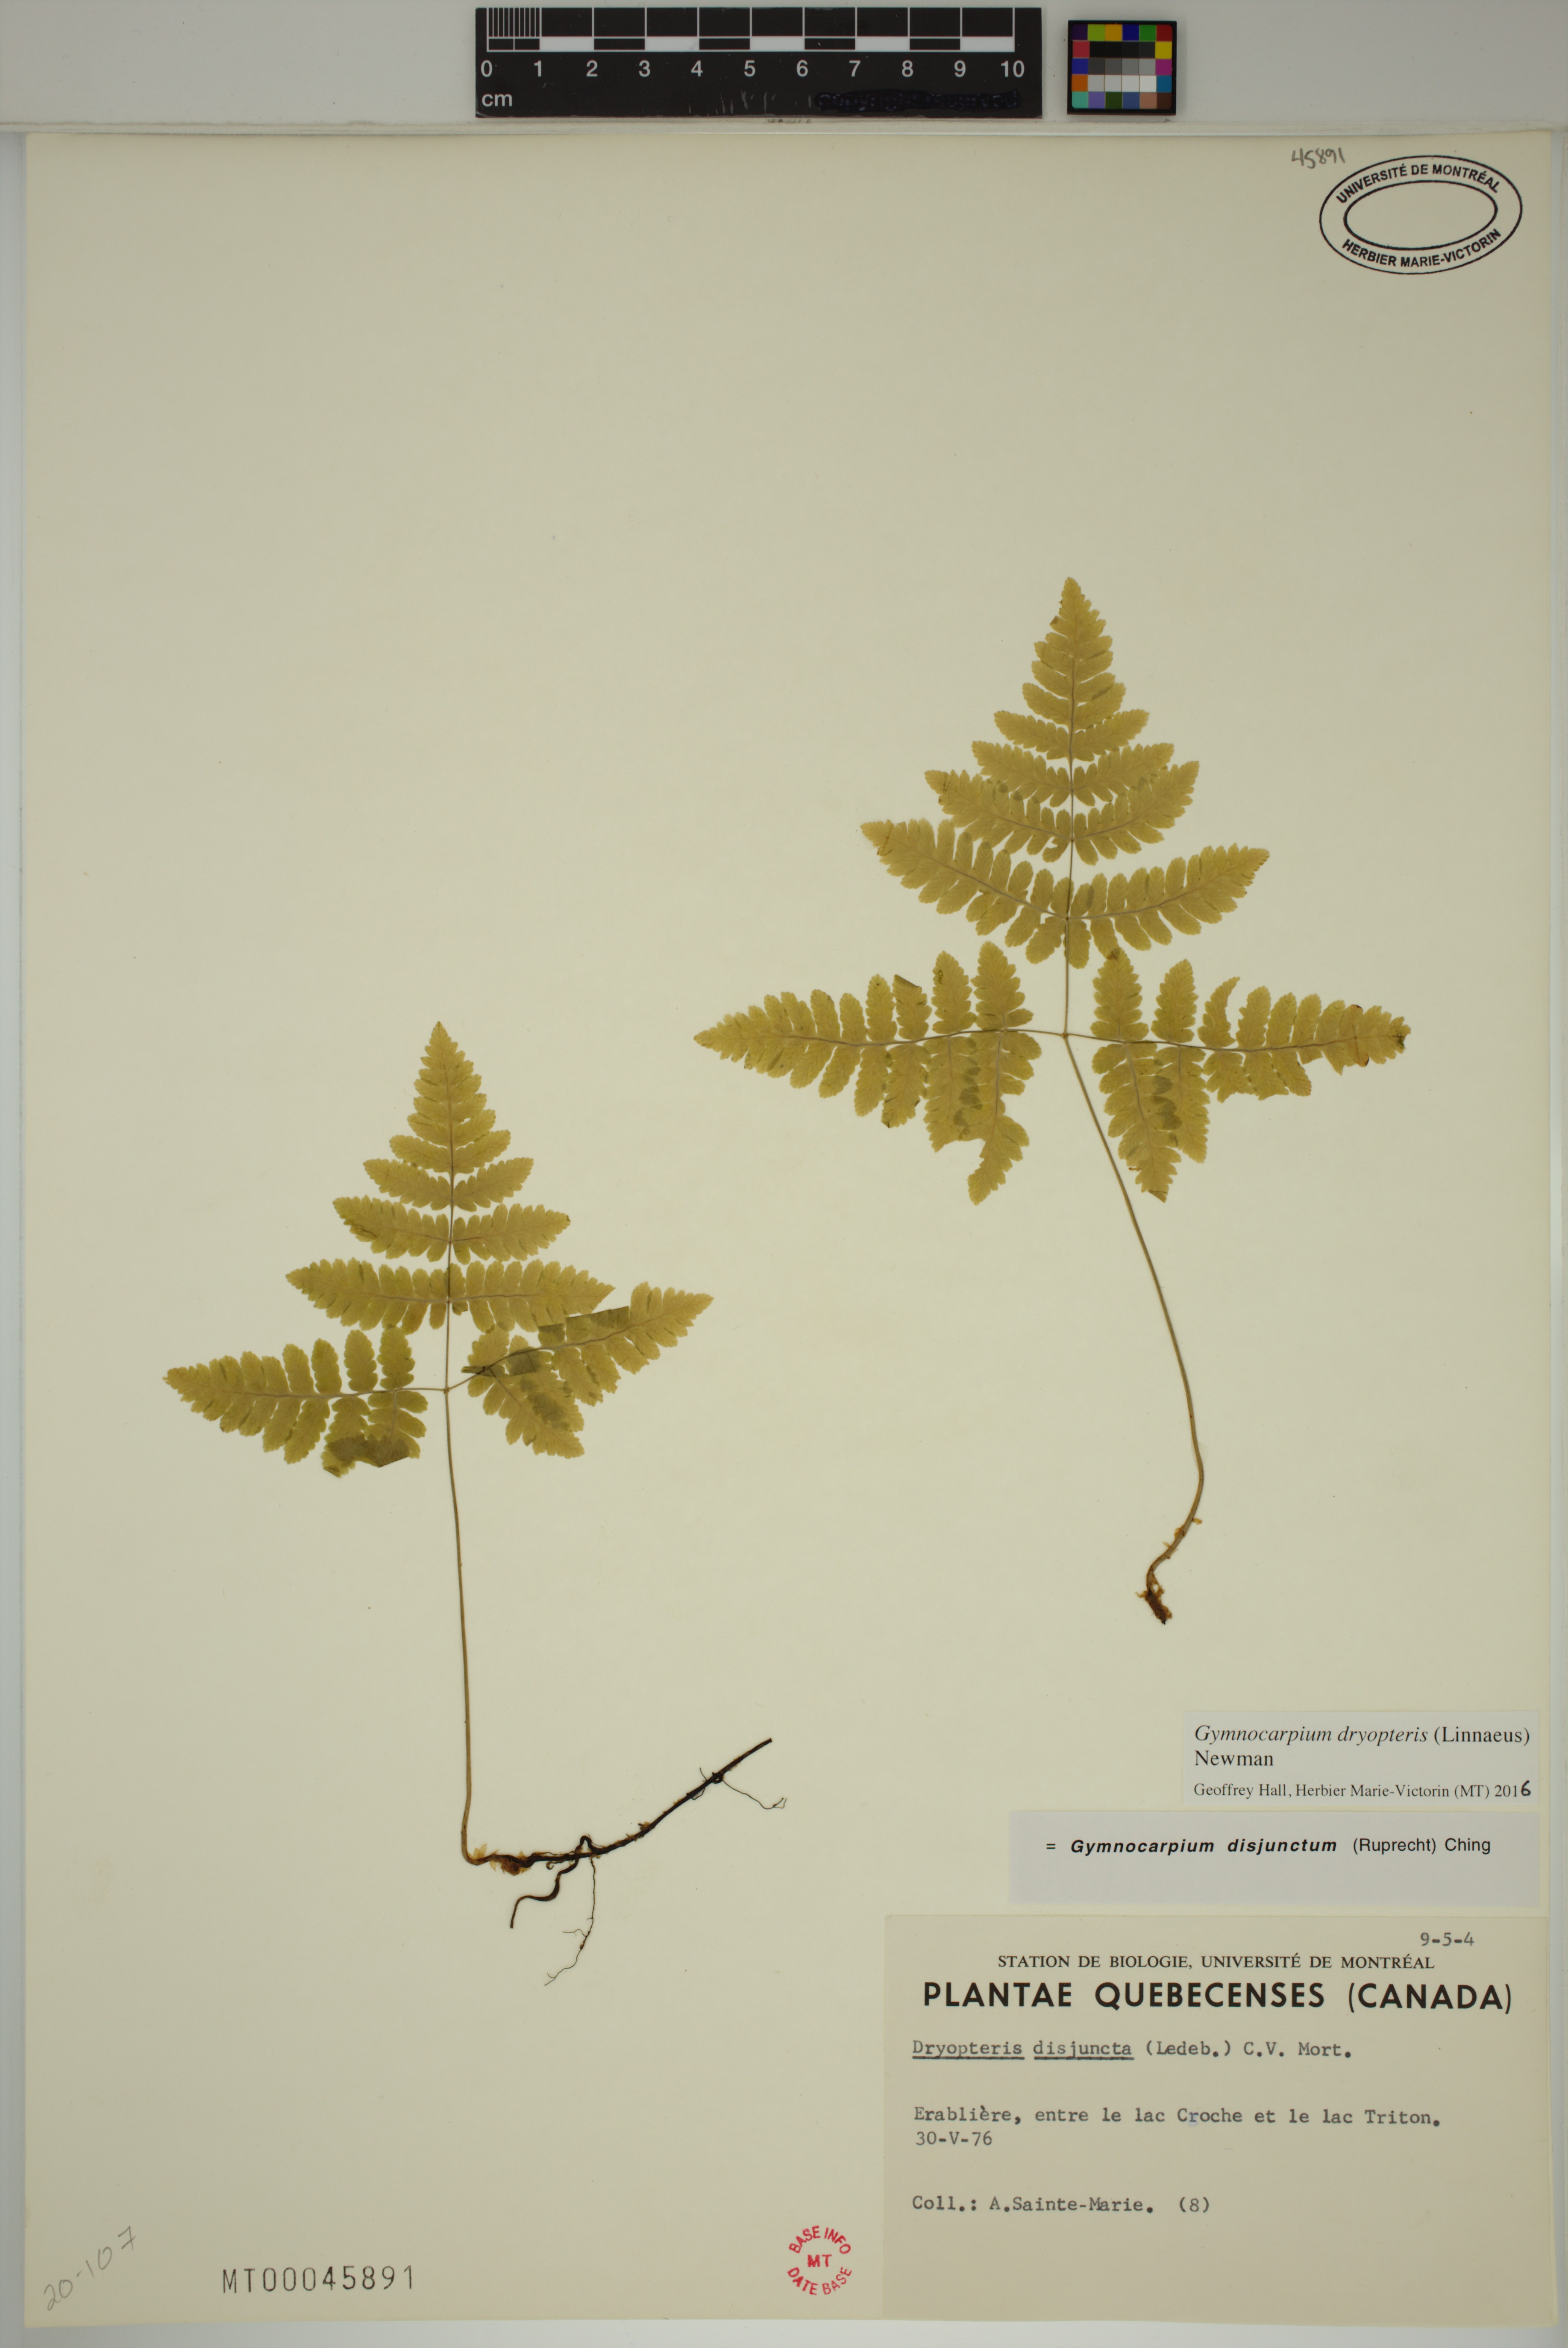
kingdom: Plantae
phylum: Tracheophyta
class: Polypodiopsida
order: Polypodiales
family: Cystopteridaceae
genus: Gymnocarpium
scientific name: Gymnocarpium dryopteris
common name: Oak fern
